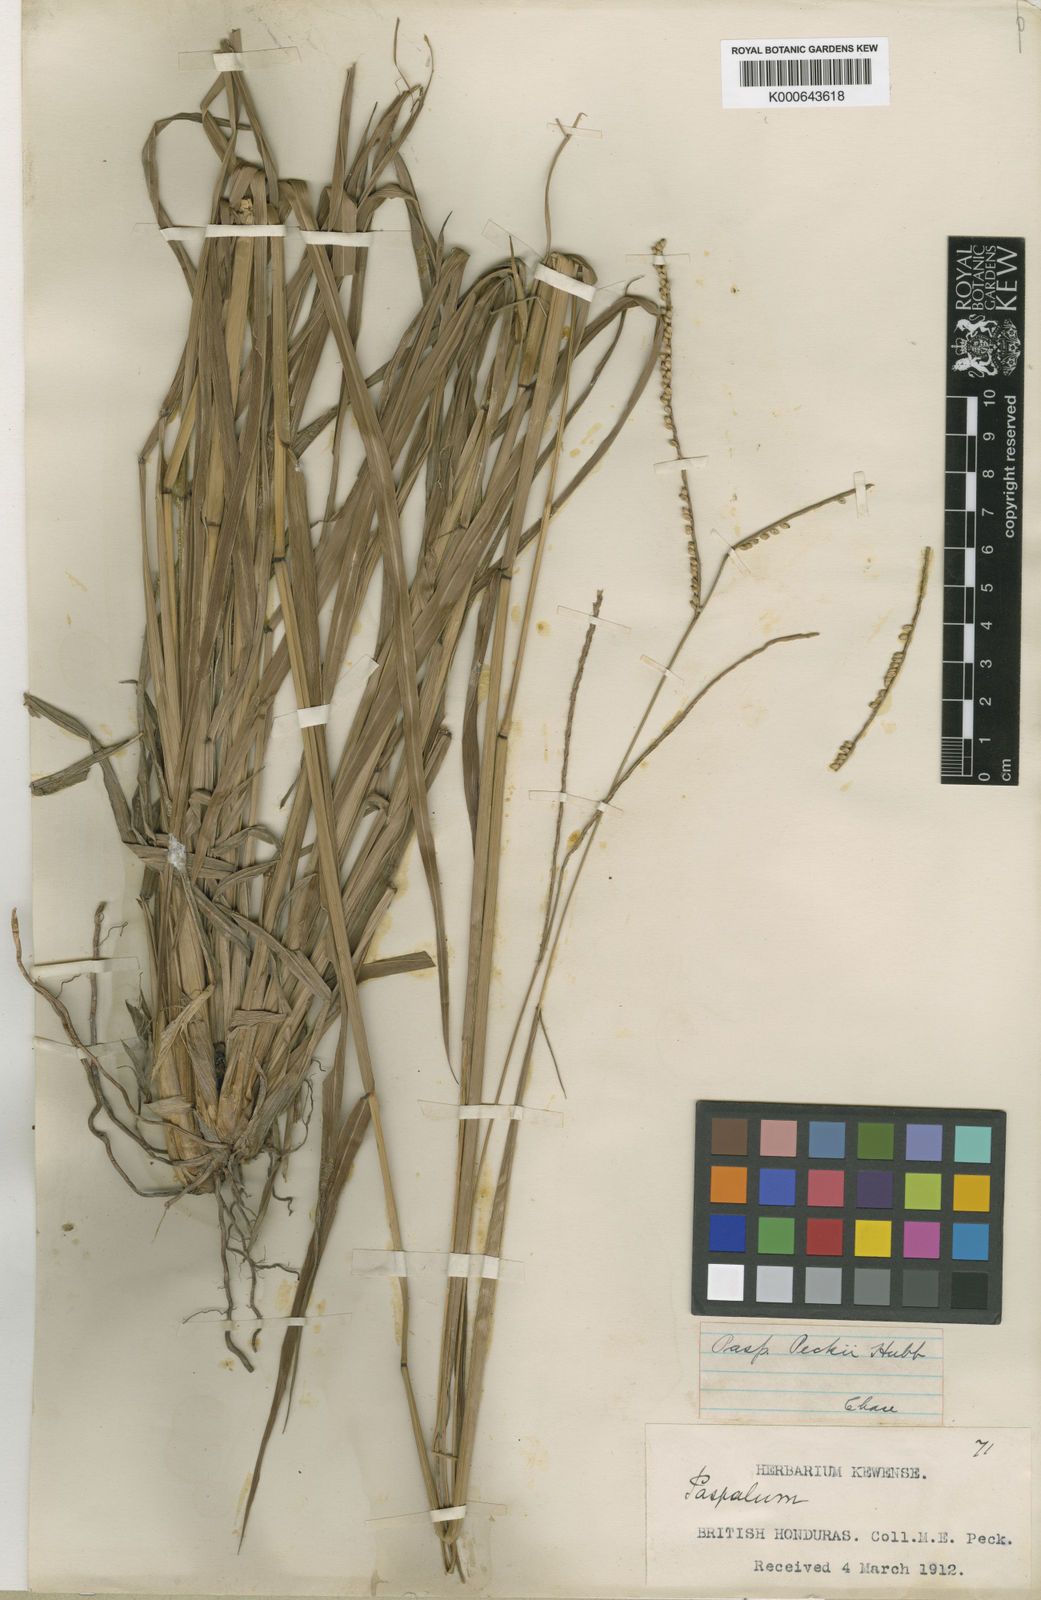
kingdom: Plantae
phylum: Tracheophyta
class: Liliopsida
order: Poales
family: Poaceae
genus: Paspalum
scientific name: Paspalum peckii
